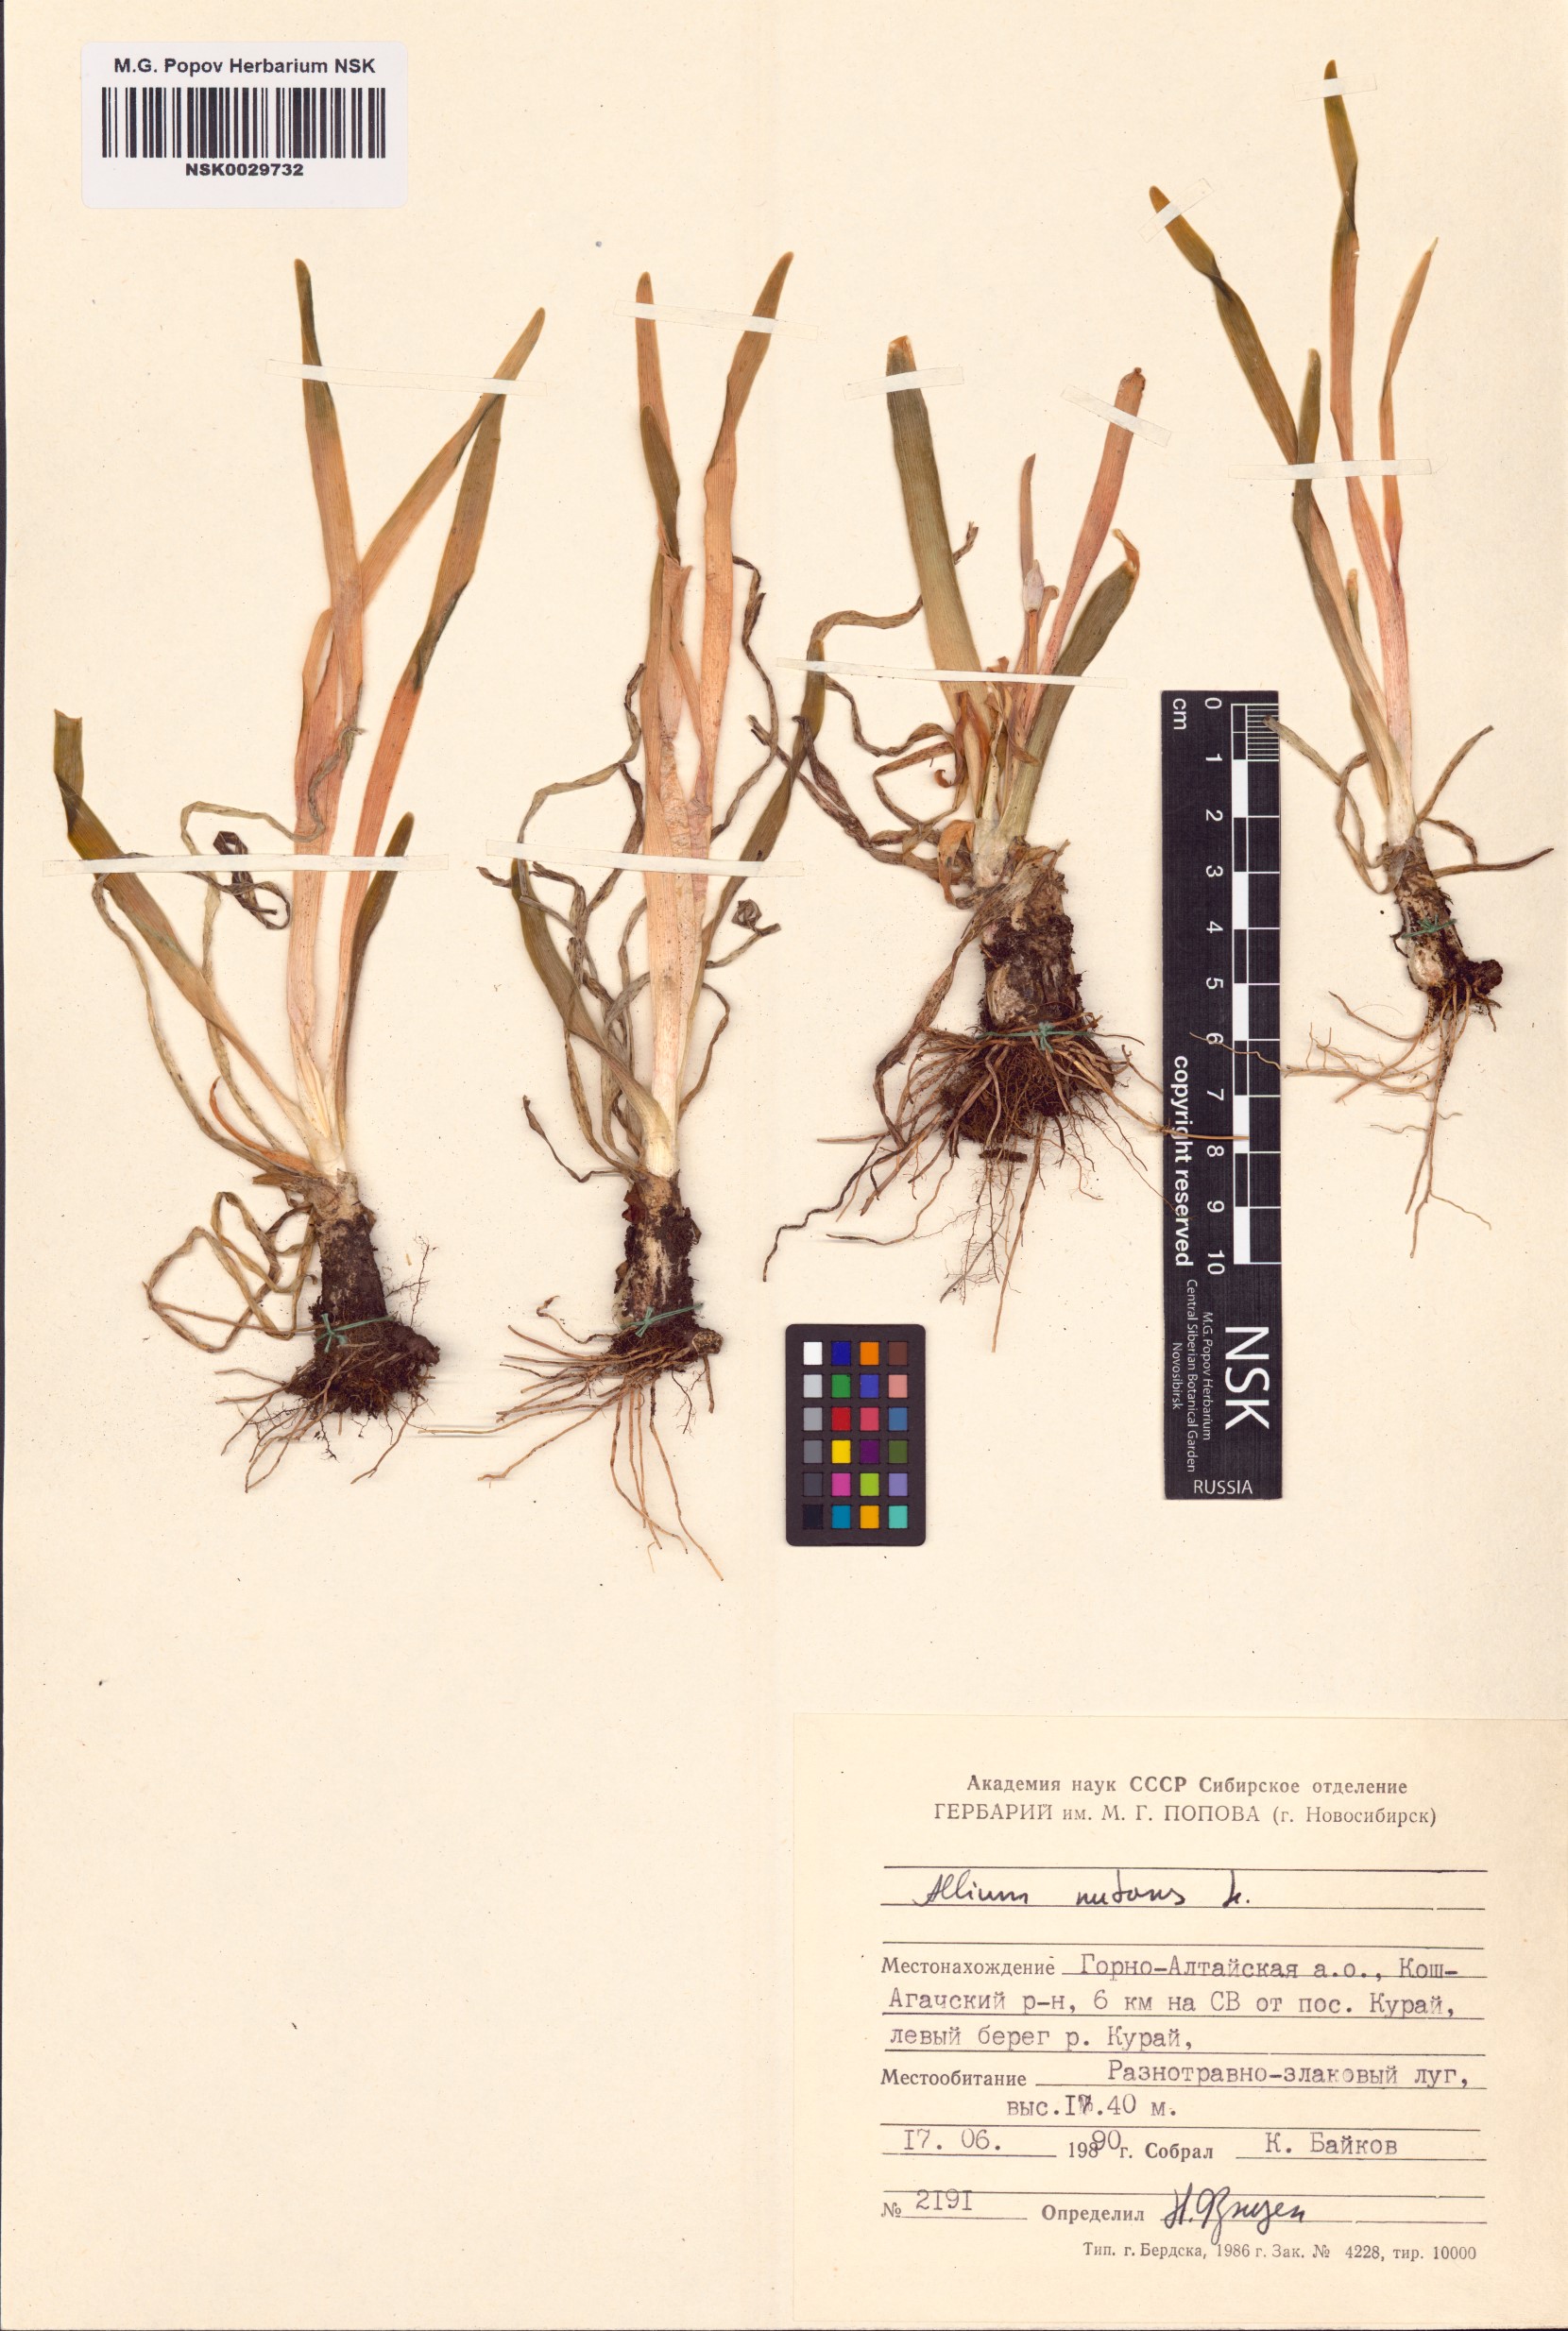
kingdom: Plantae
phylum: Tracheophyta
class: Liliopsida
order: Asparagales
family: Amaryllidaceae
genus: Allium
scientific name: Allium nutans
